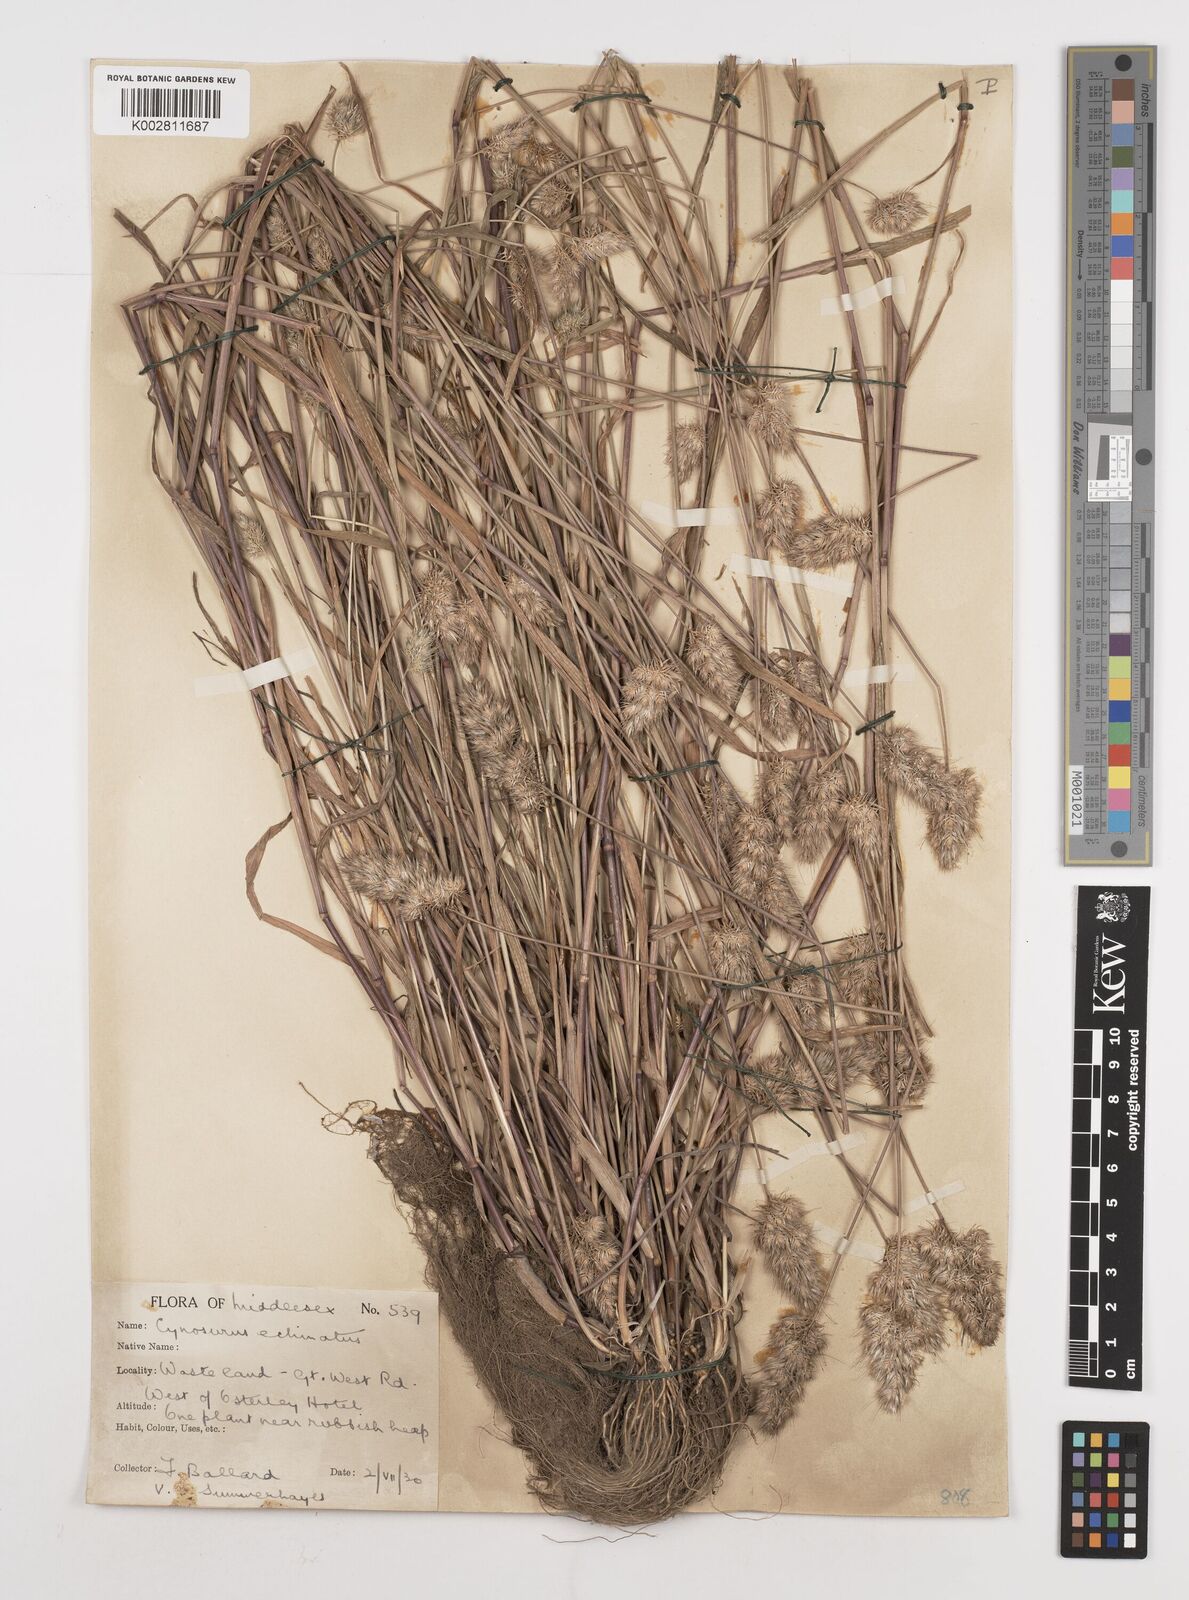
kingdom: Plantae
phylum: Tracheophyta
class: Liliopsida
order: Poales
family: Poaceae
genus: Cynosurus
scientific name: Cynosurus echinatus
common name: Rough dog's-tail
